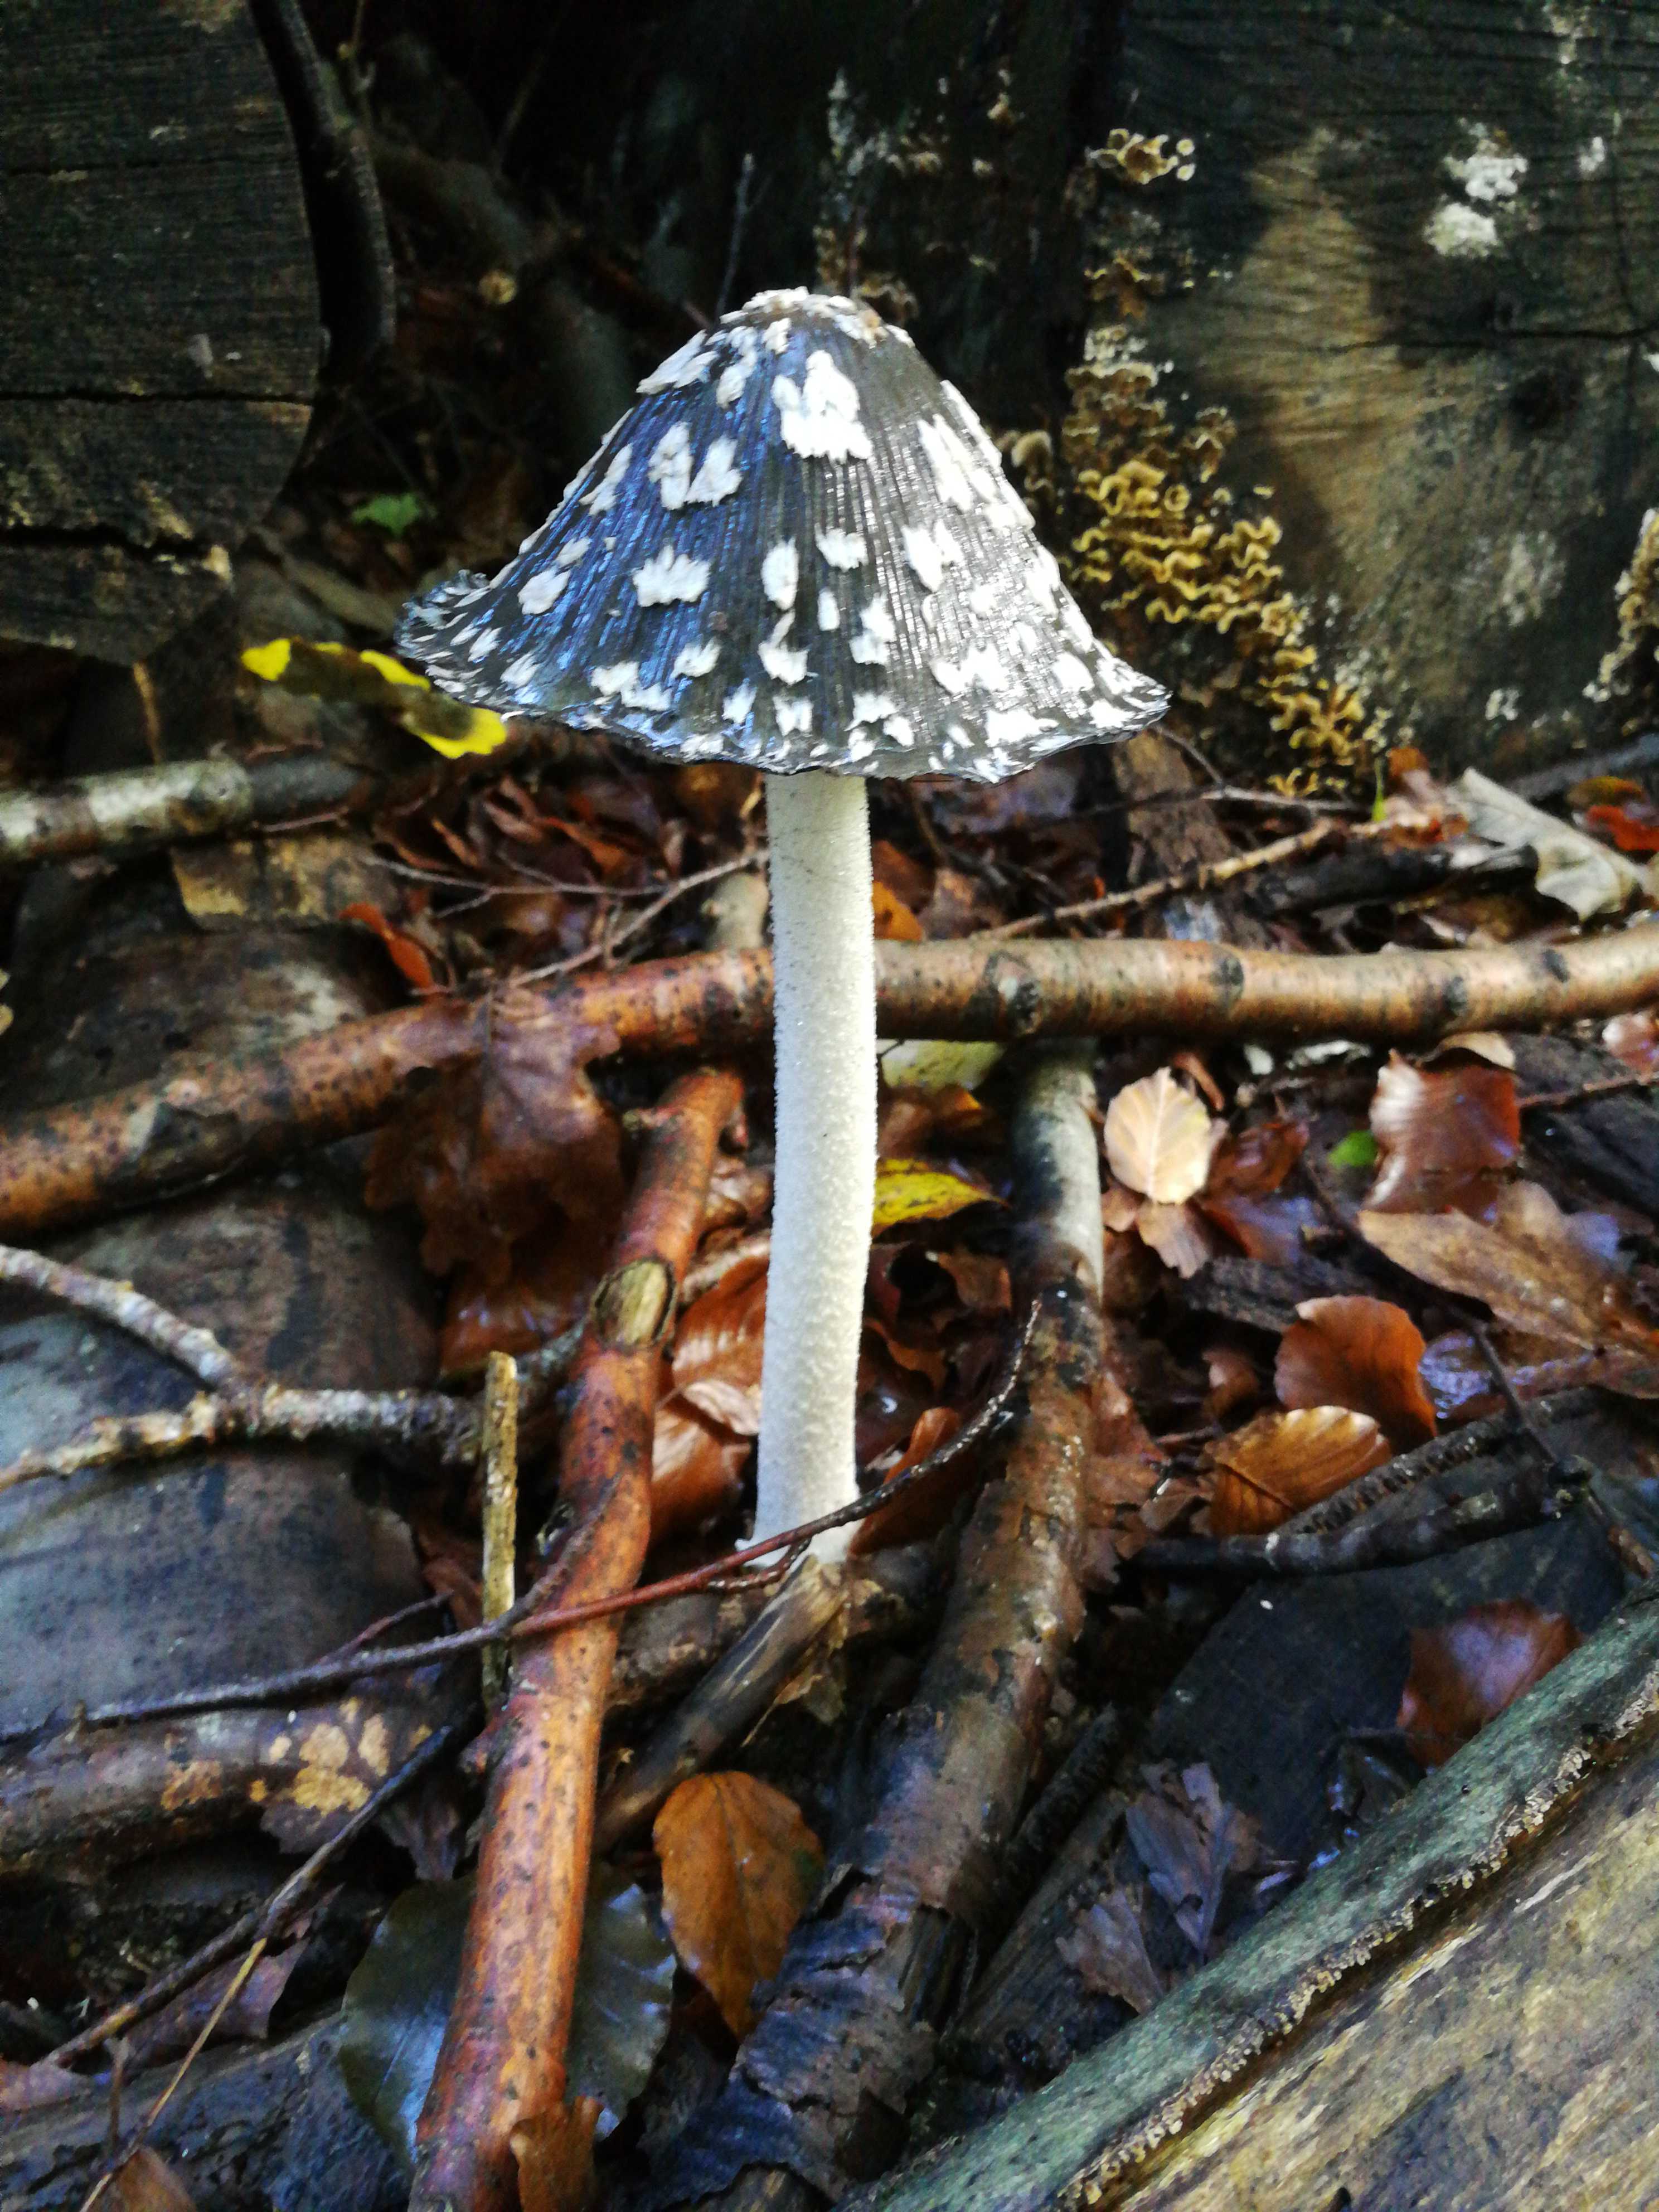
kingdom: Fungi
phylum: Basidiomycota
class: Agaricomycetes
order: Agaricales
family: Psathyrellaceae
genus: Coprinopsis
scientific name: Coprinopsis picacea
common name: skade-blækhat
